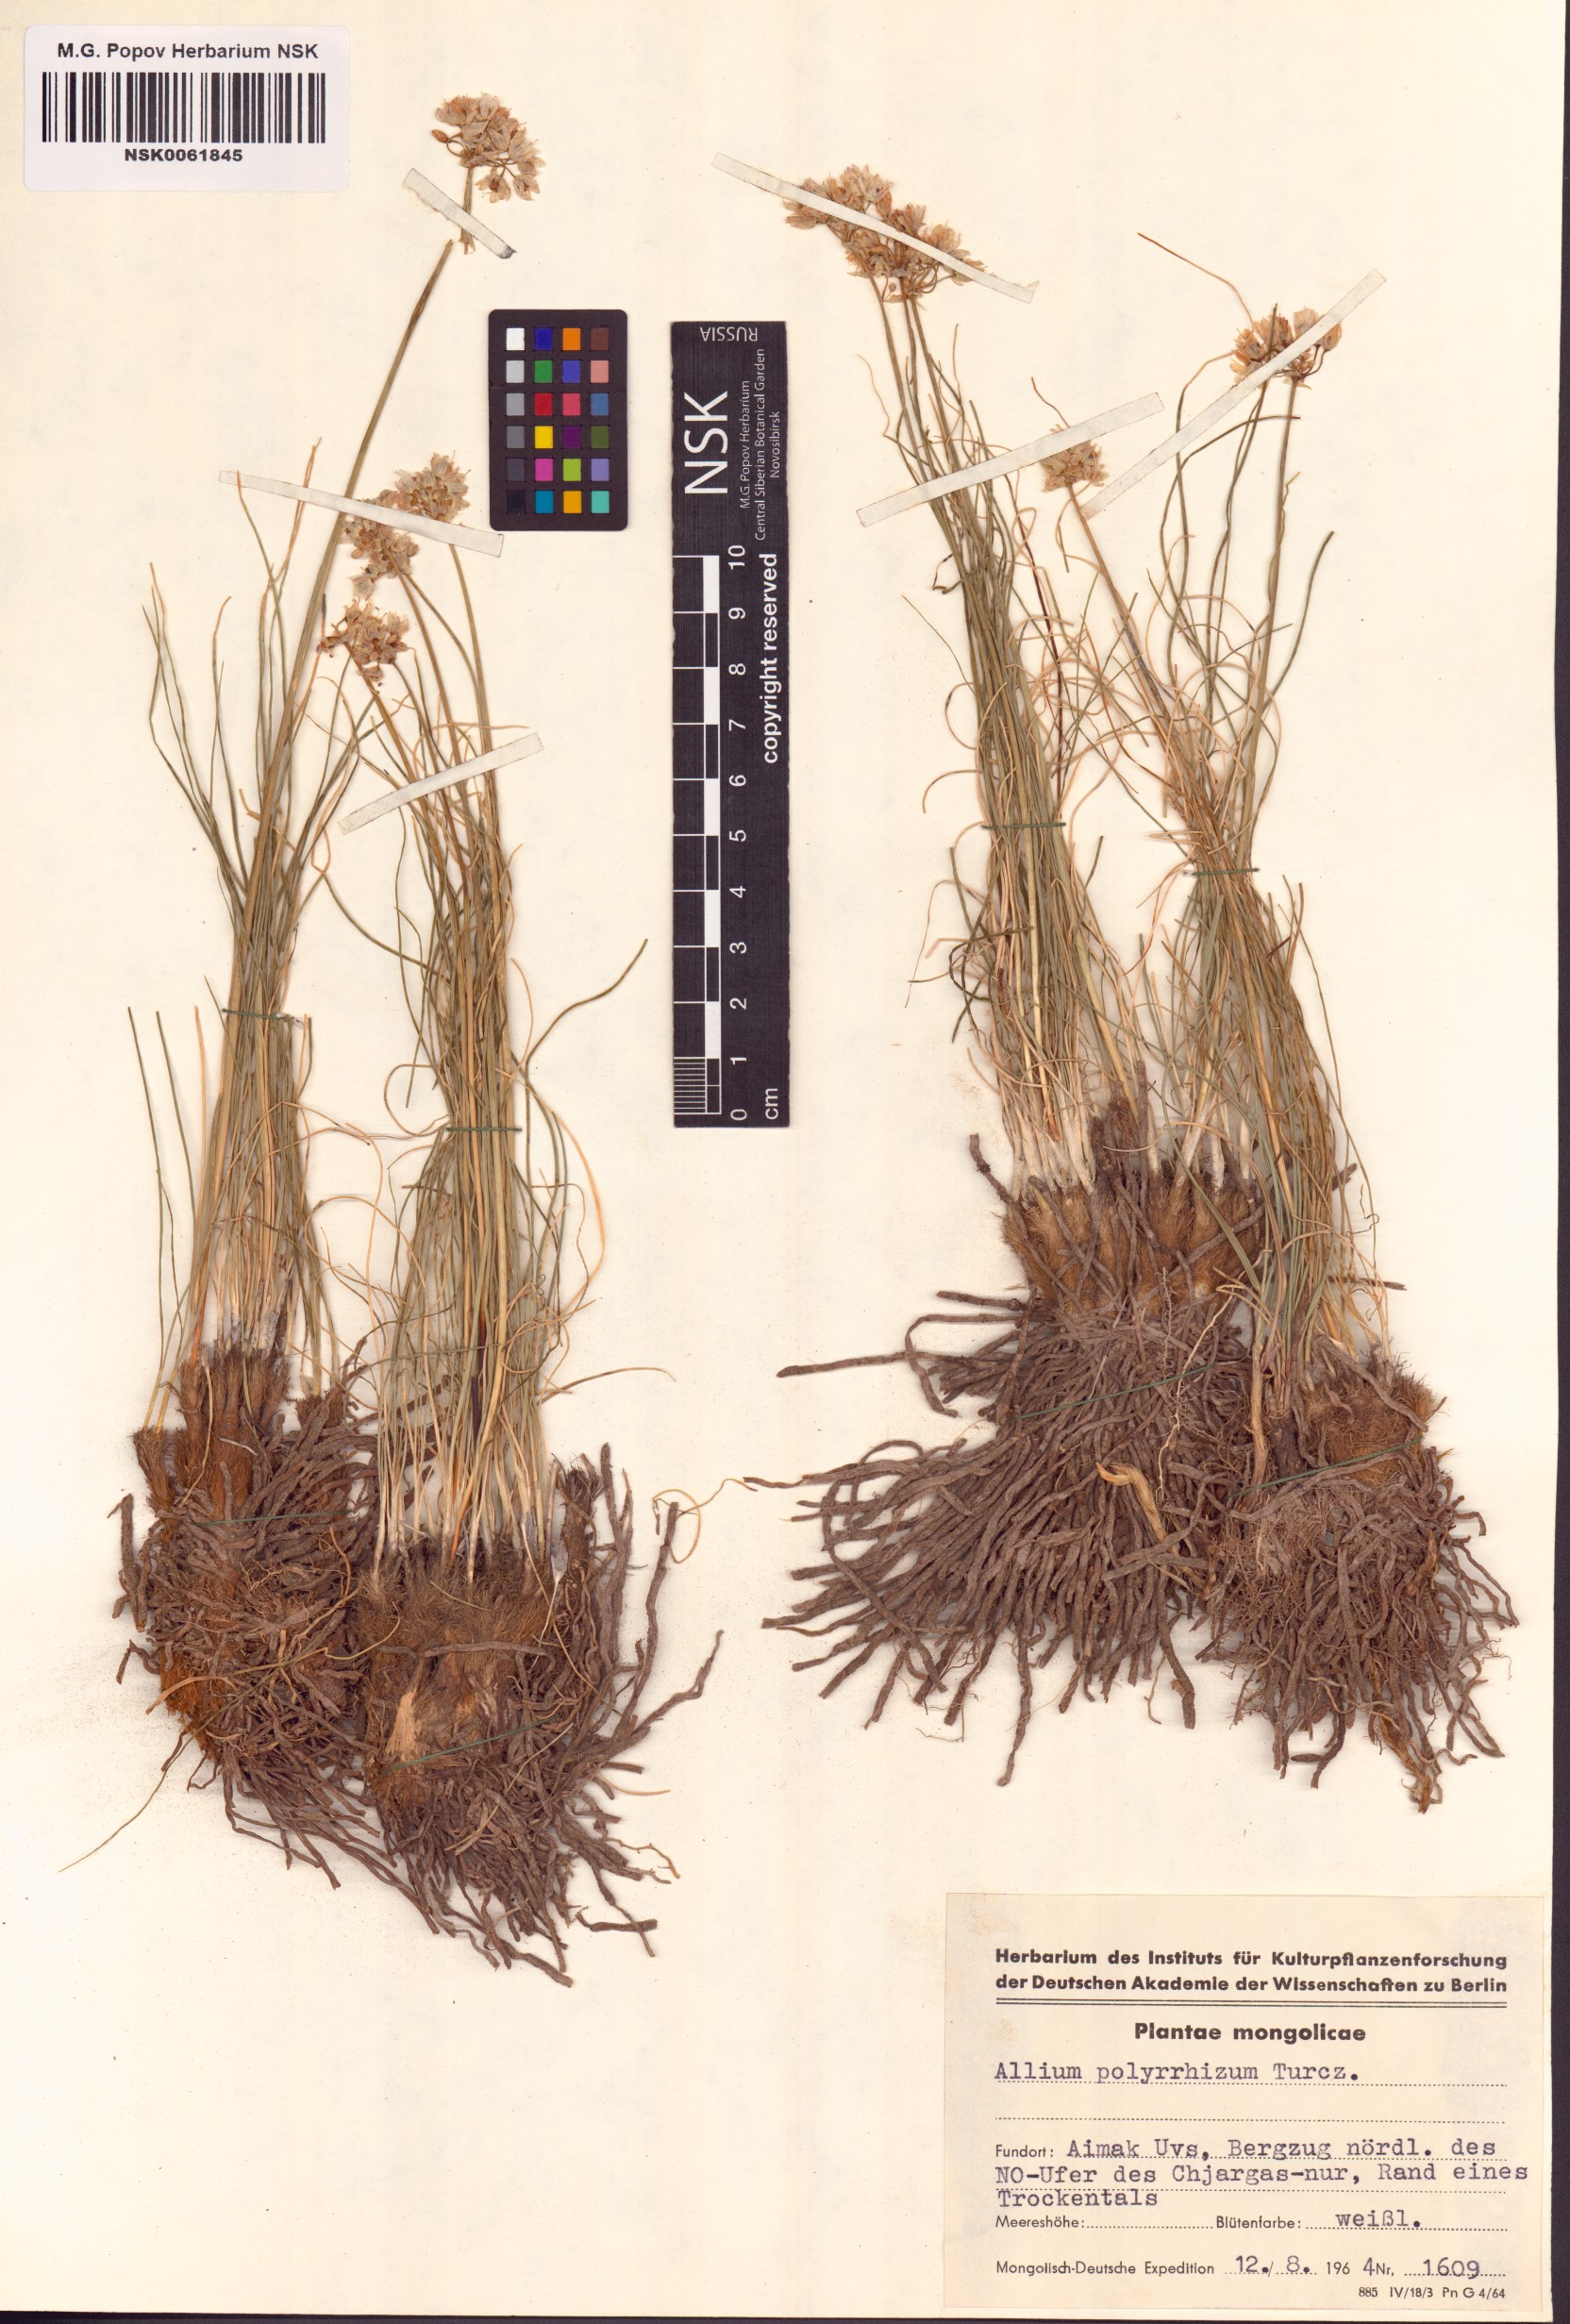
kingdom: Plantae
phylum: Tracheophyta
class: Liliopsida
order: Asparagales
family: Amaryllidaceae
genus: Allium
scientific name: Allium polyrhizum
